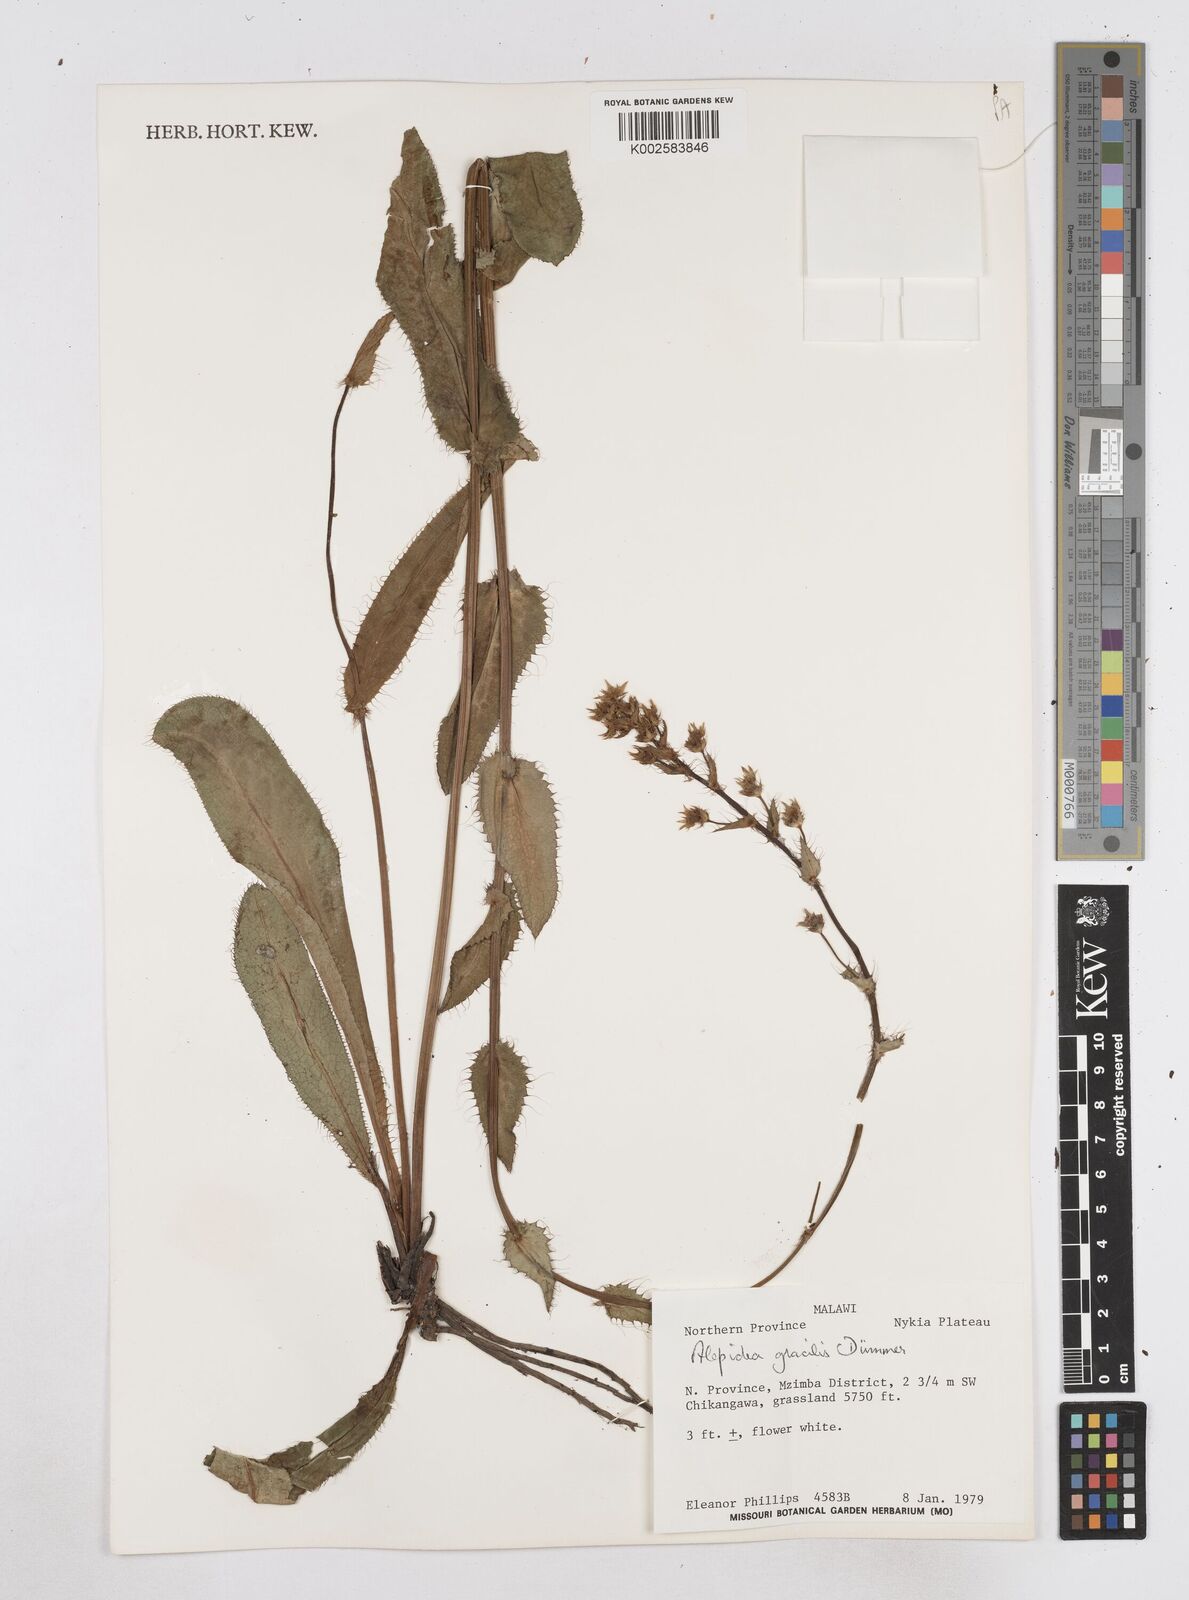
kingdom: Plantae
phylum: Tracheophyta
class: Magnoliopsida
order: Apiales
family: Apiaceae
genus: Alepidea
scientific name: Alepidea peduncularis
